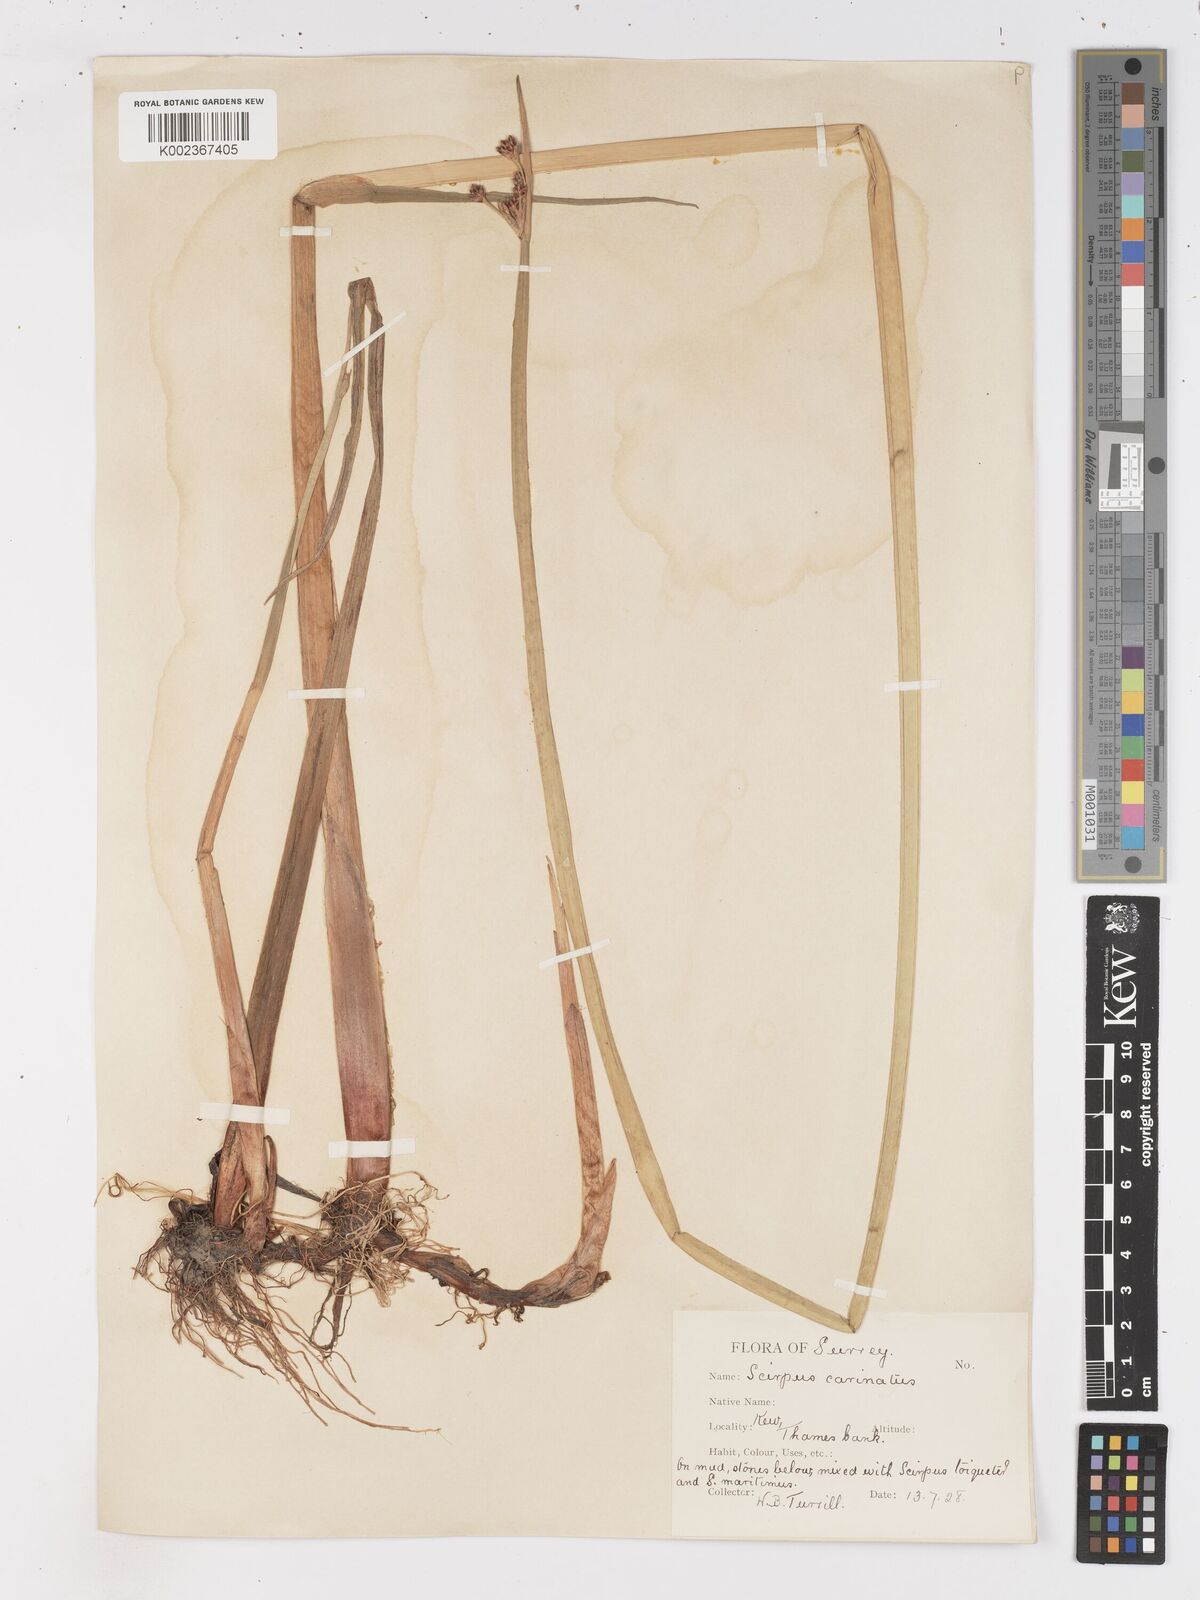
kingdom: Plantae
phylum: Tracheophyta
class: Liliopsida
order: Poales
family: Cyperaceae
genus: Isolepis
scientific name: Isolepis carinata
